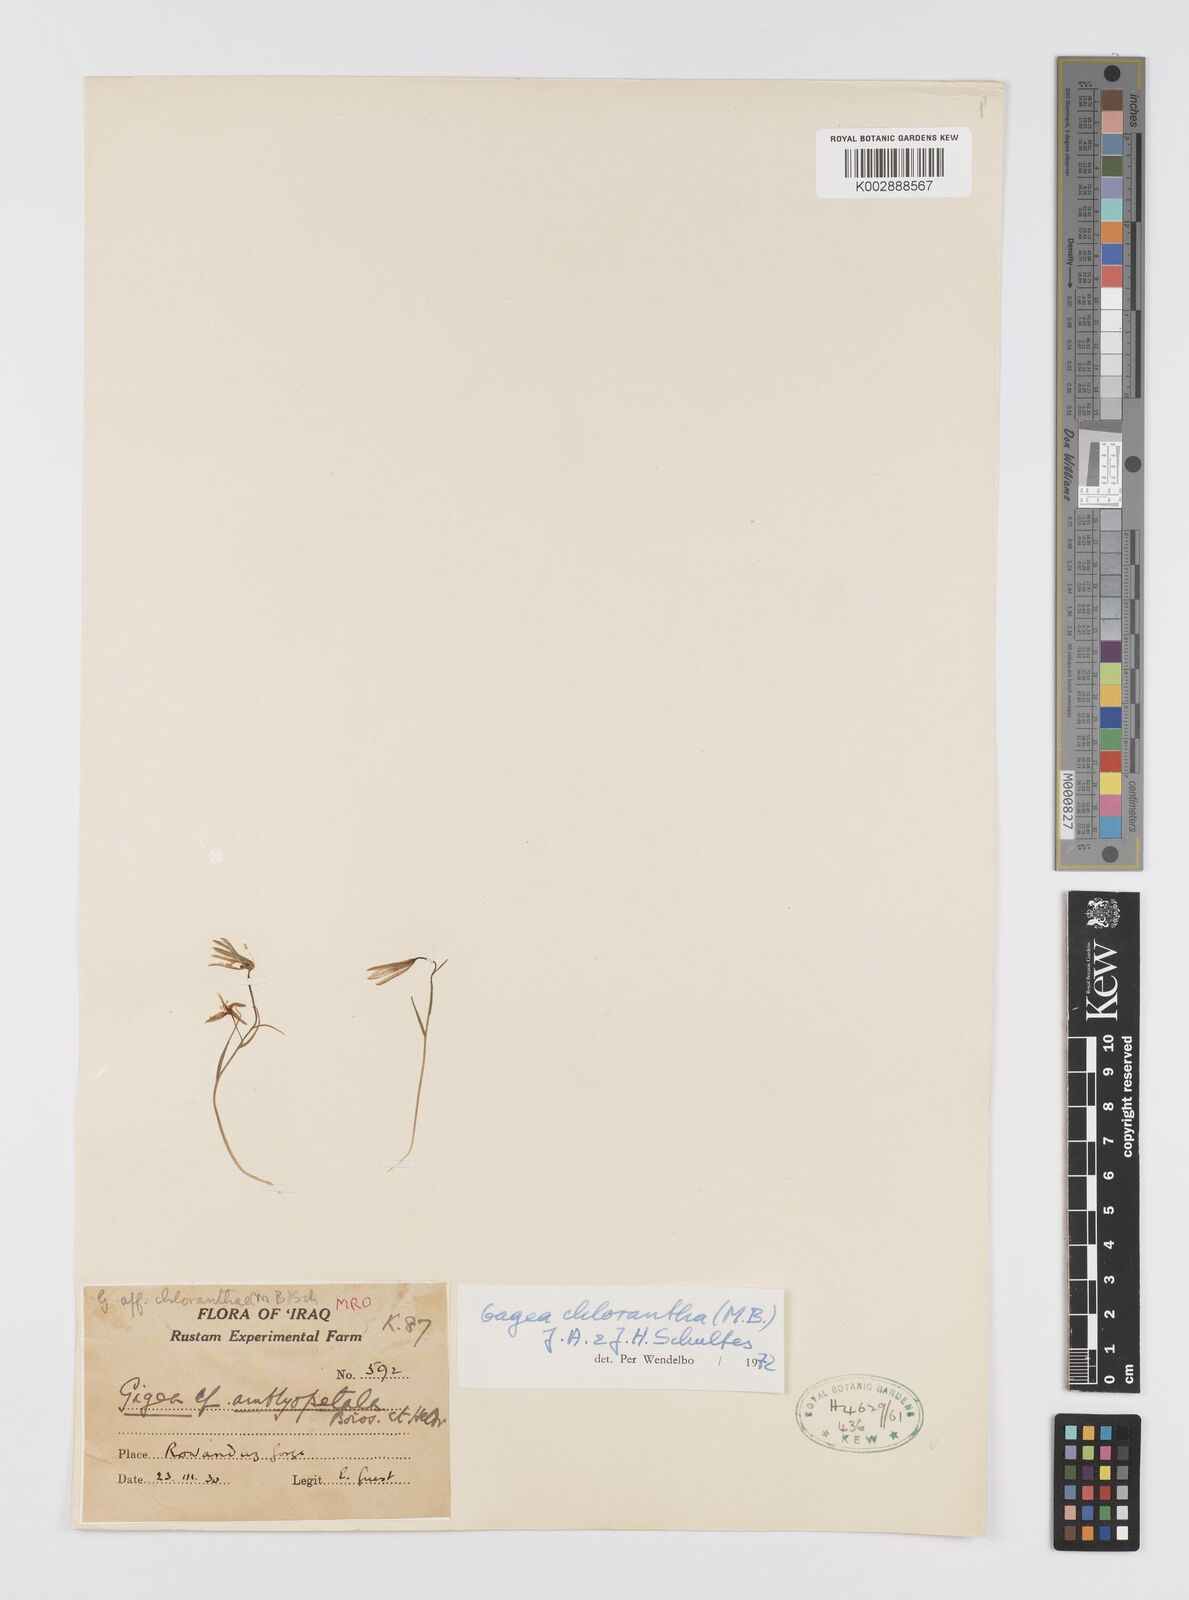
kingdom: Plantae
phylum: Tracheophyta
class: Liliopsida
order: Liliales
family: Liliaceae
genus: Gagea
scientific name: Gagea chlorantha
